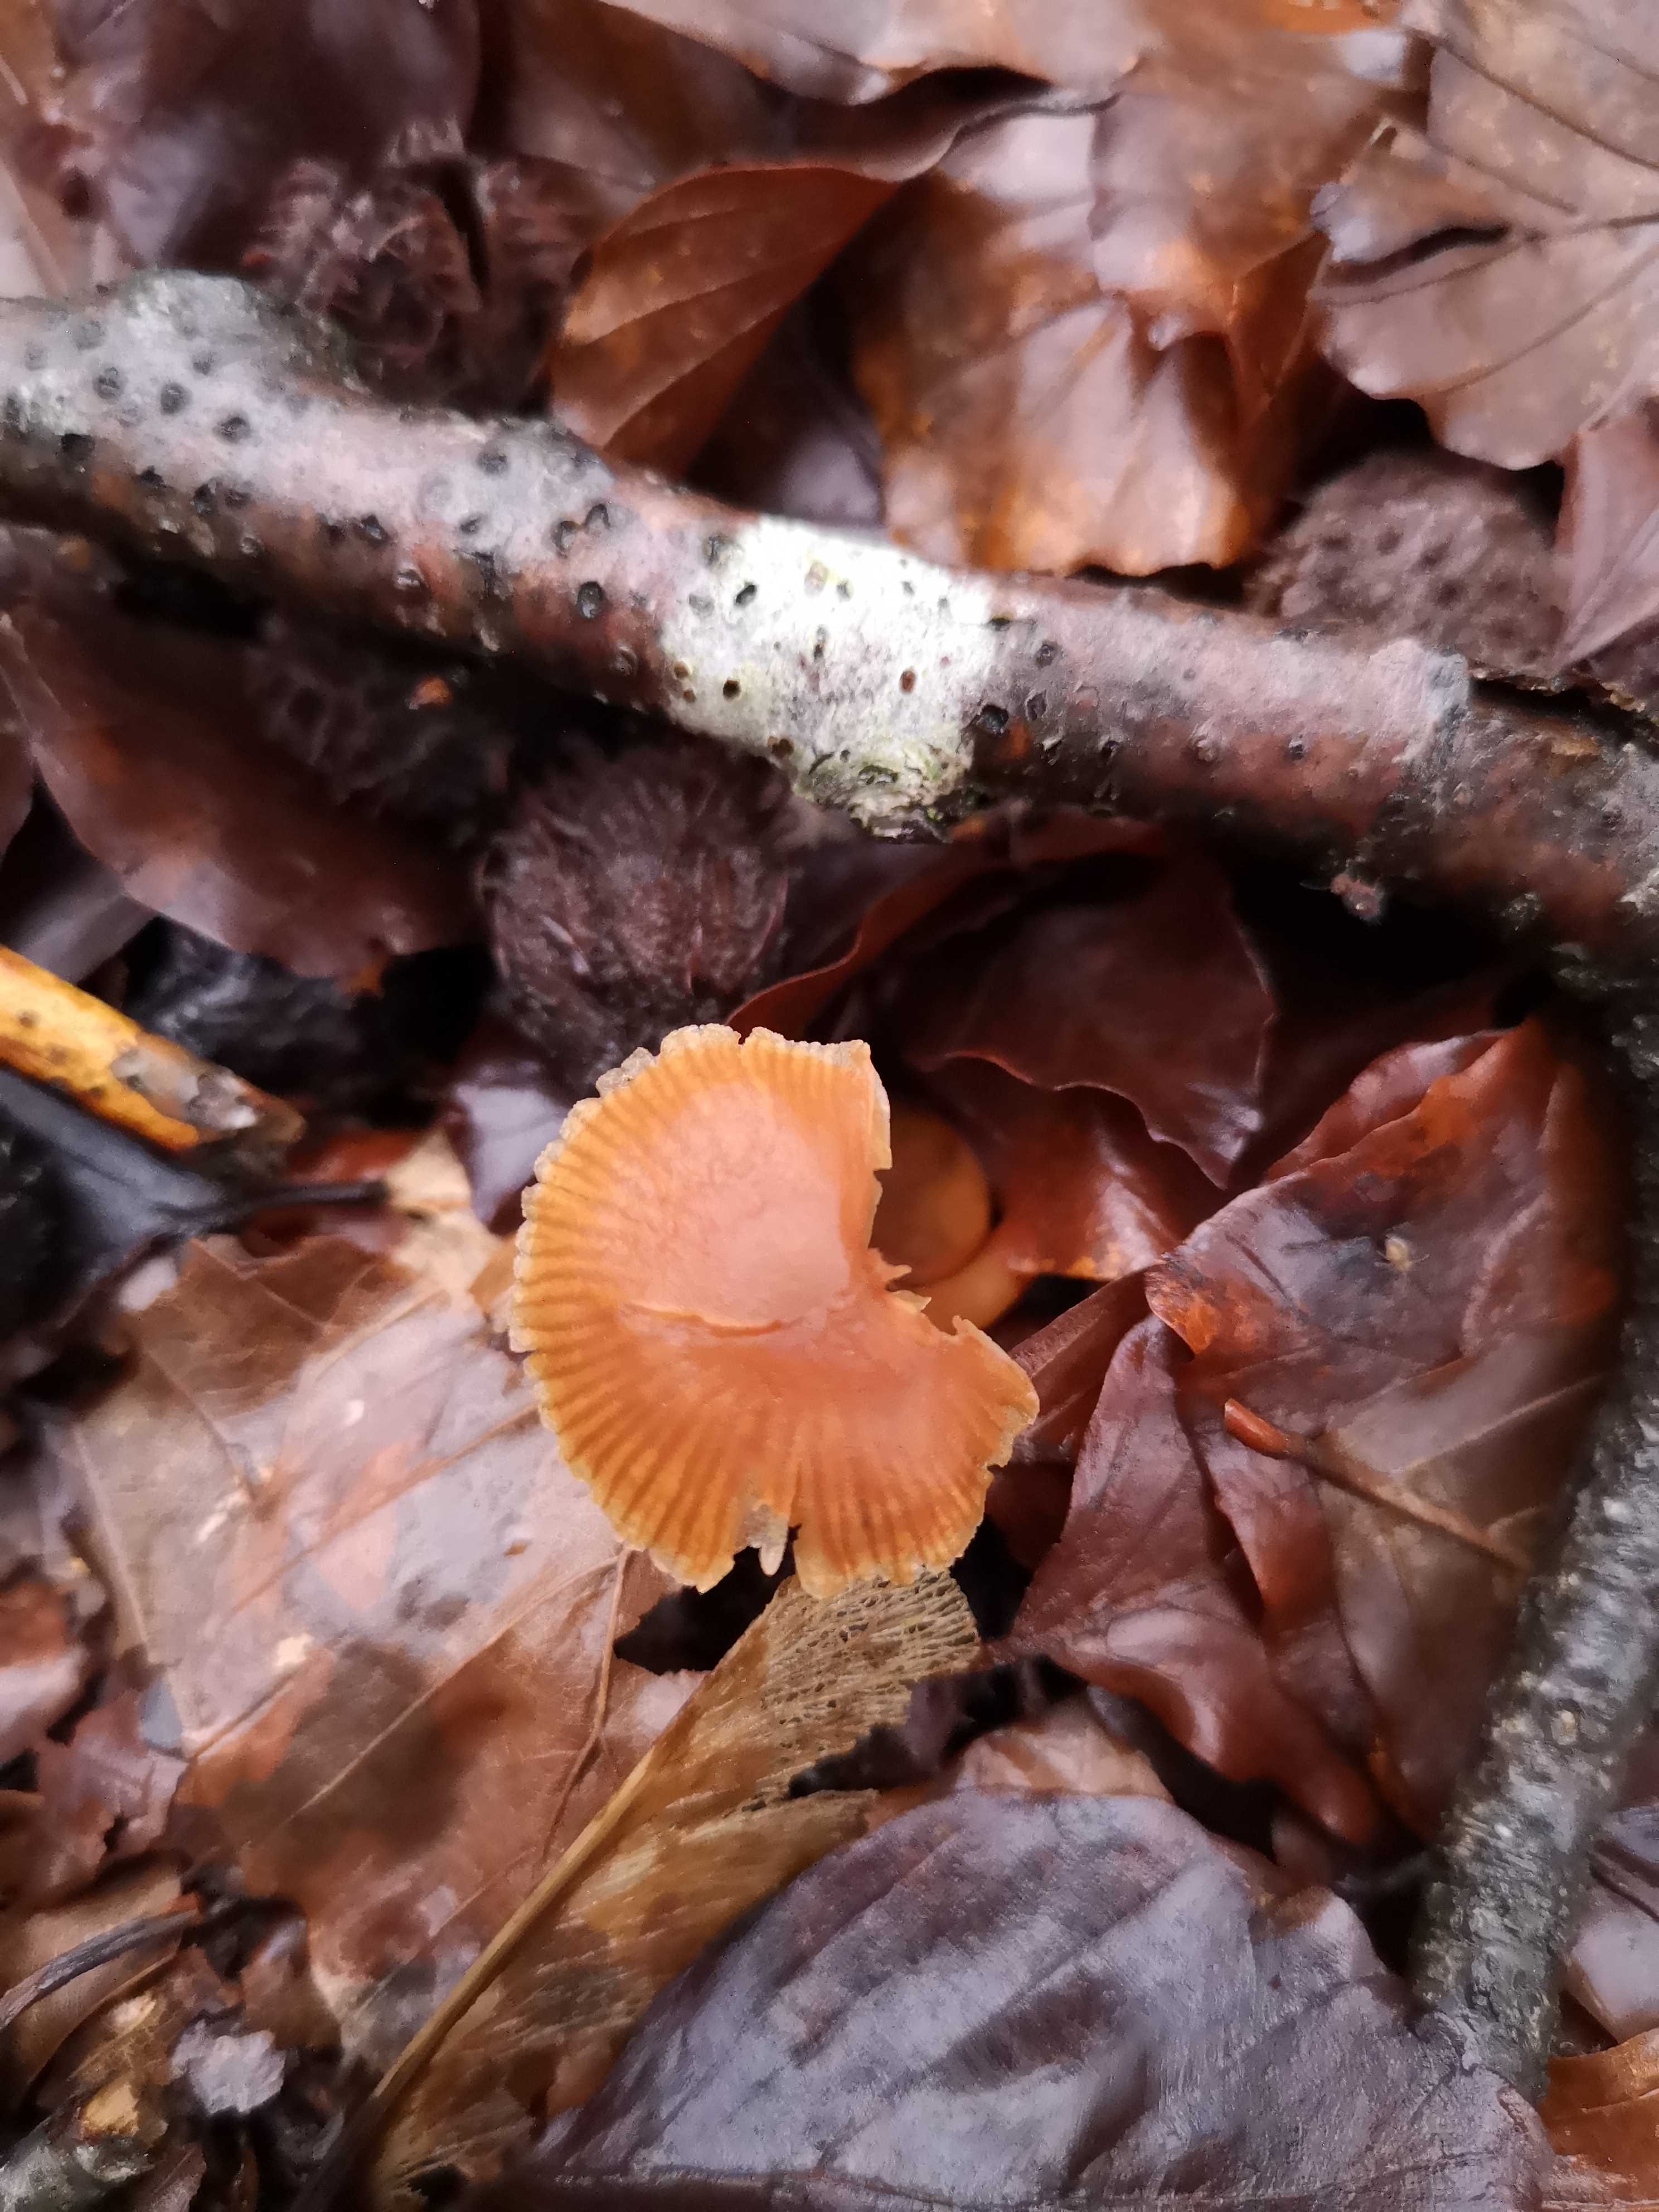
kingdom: Fungi
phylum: Basidiomycota
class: Agaricomycetes
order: Agaricales
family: Tubariaceae
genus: Tubaria
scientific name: Tubaria furfuracea
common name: kliddet fnughat
